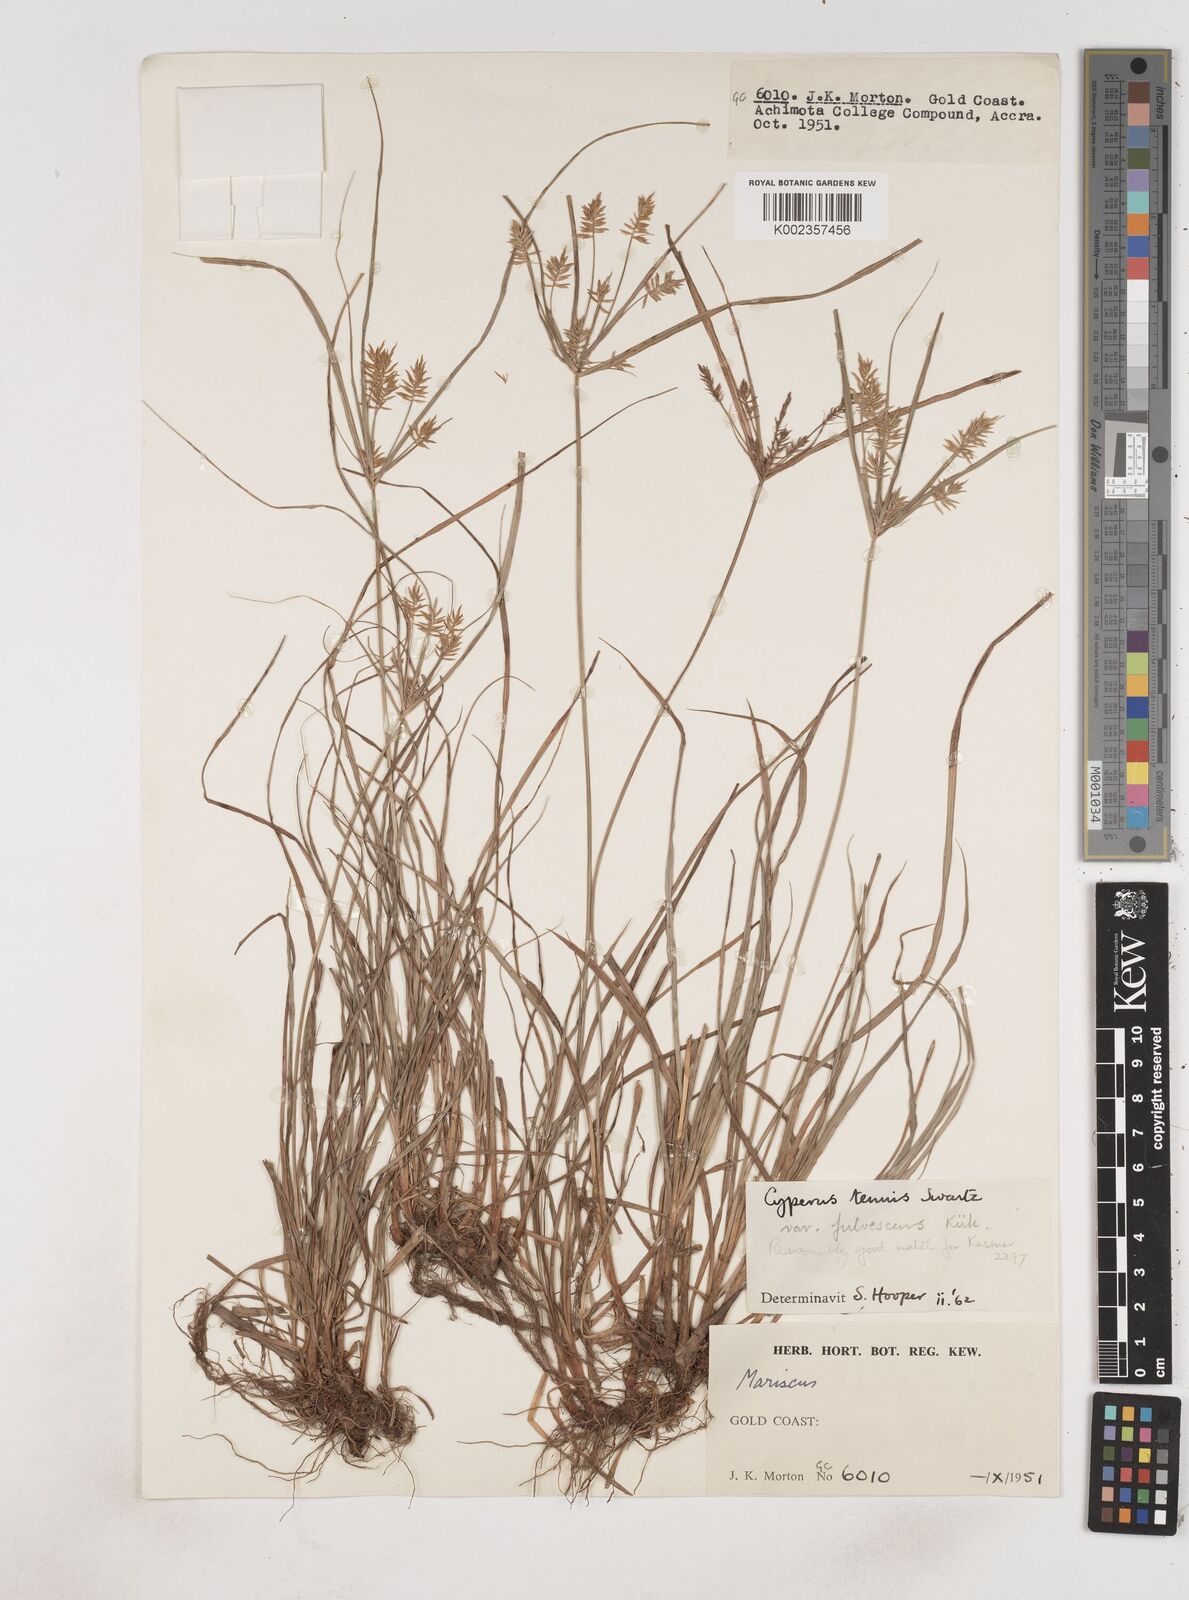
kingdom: Plantae
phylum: Tracheophyta
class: Liliopsida
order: Poales
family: Cyperaceae
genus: Cyperus
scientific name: Cyperus tenuis
